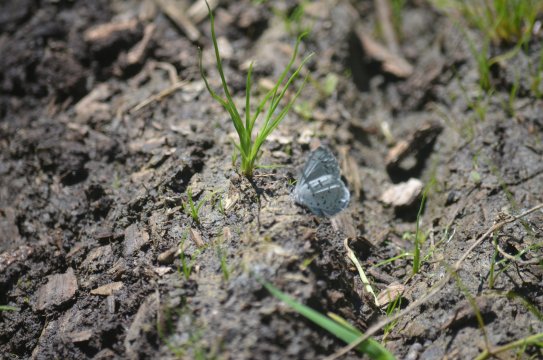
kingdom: Animalia
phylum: Arthropoda
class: Insecta
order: Lepidoptera
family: Lycaenidae
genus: Celastrina
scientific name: Celastrina lucia
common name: Northern Spring Azure
